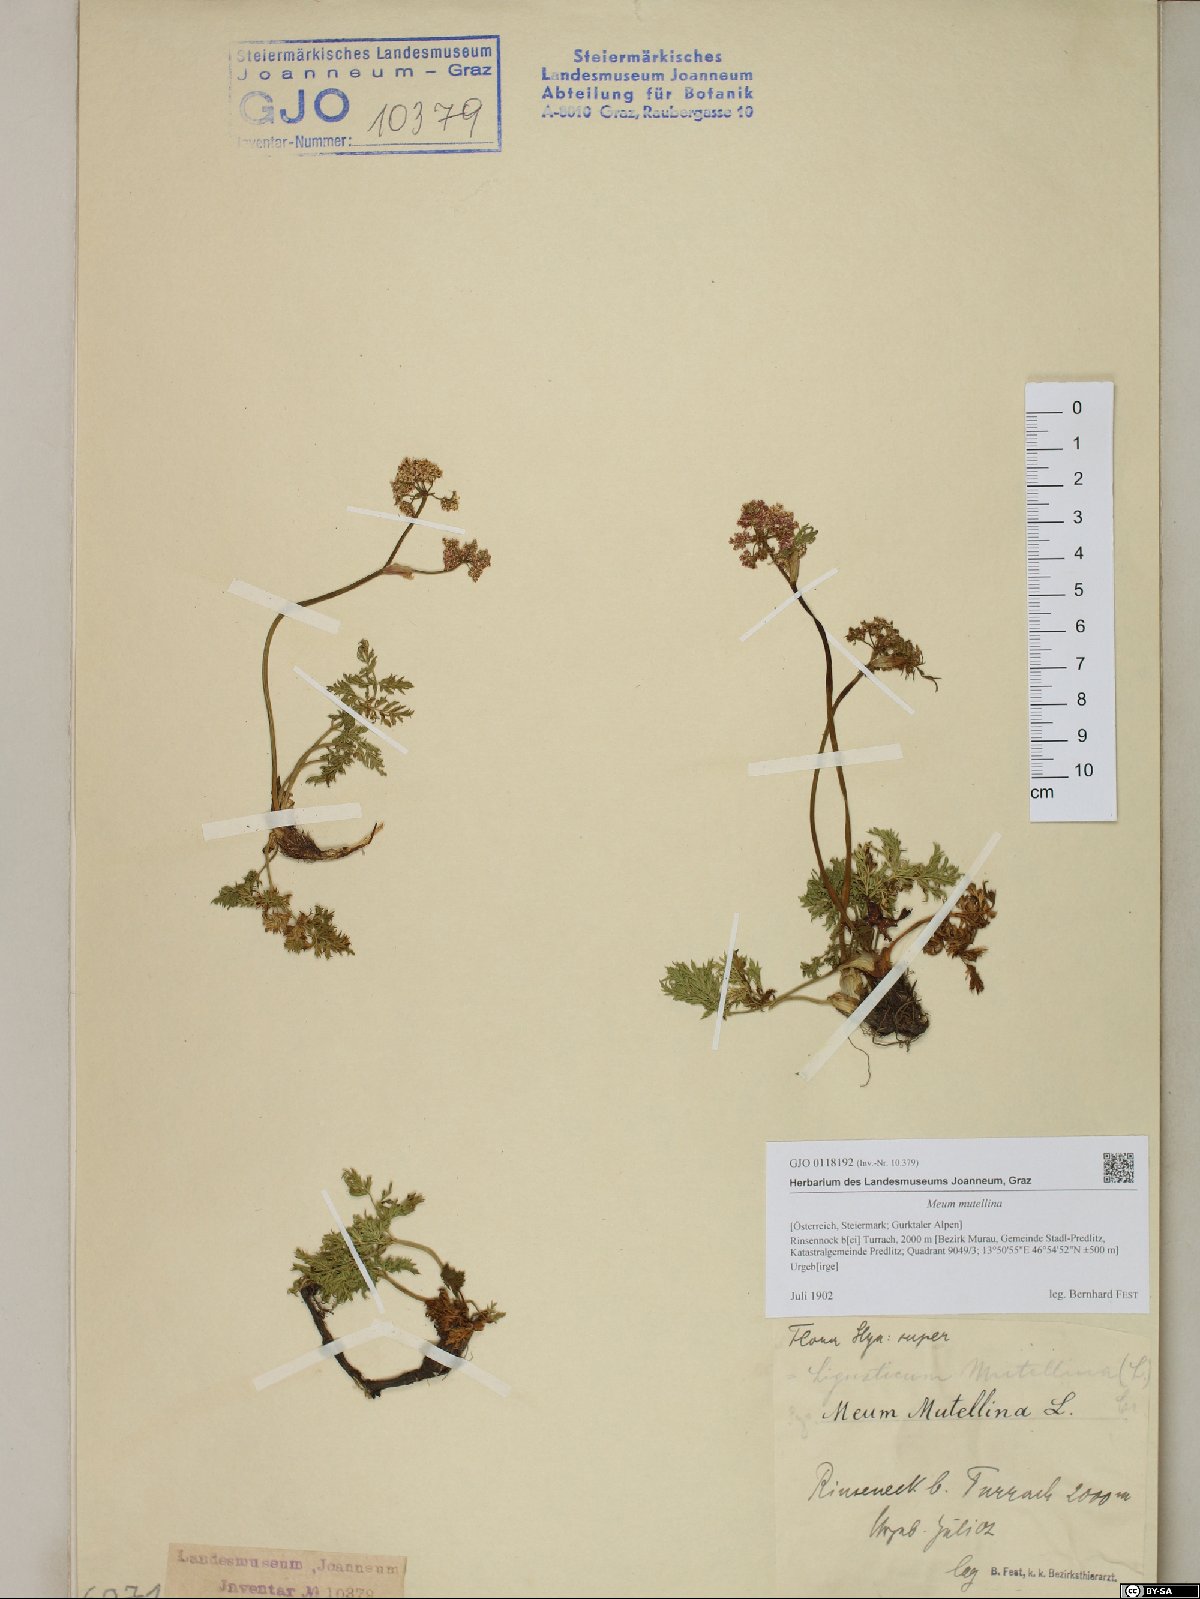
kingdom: Plantae
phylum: Tracheophyta
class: Magnoliopsida
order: Apiales
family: Apiaceae
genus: Mutellina
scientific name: Mutellina adonidifolia
